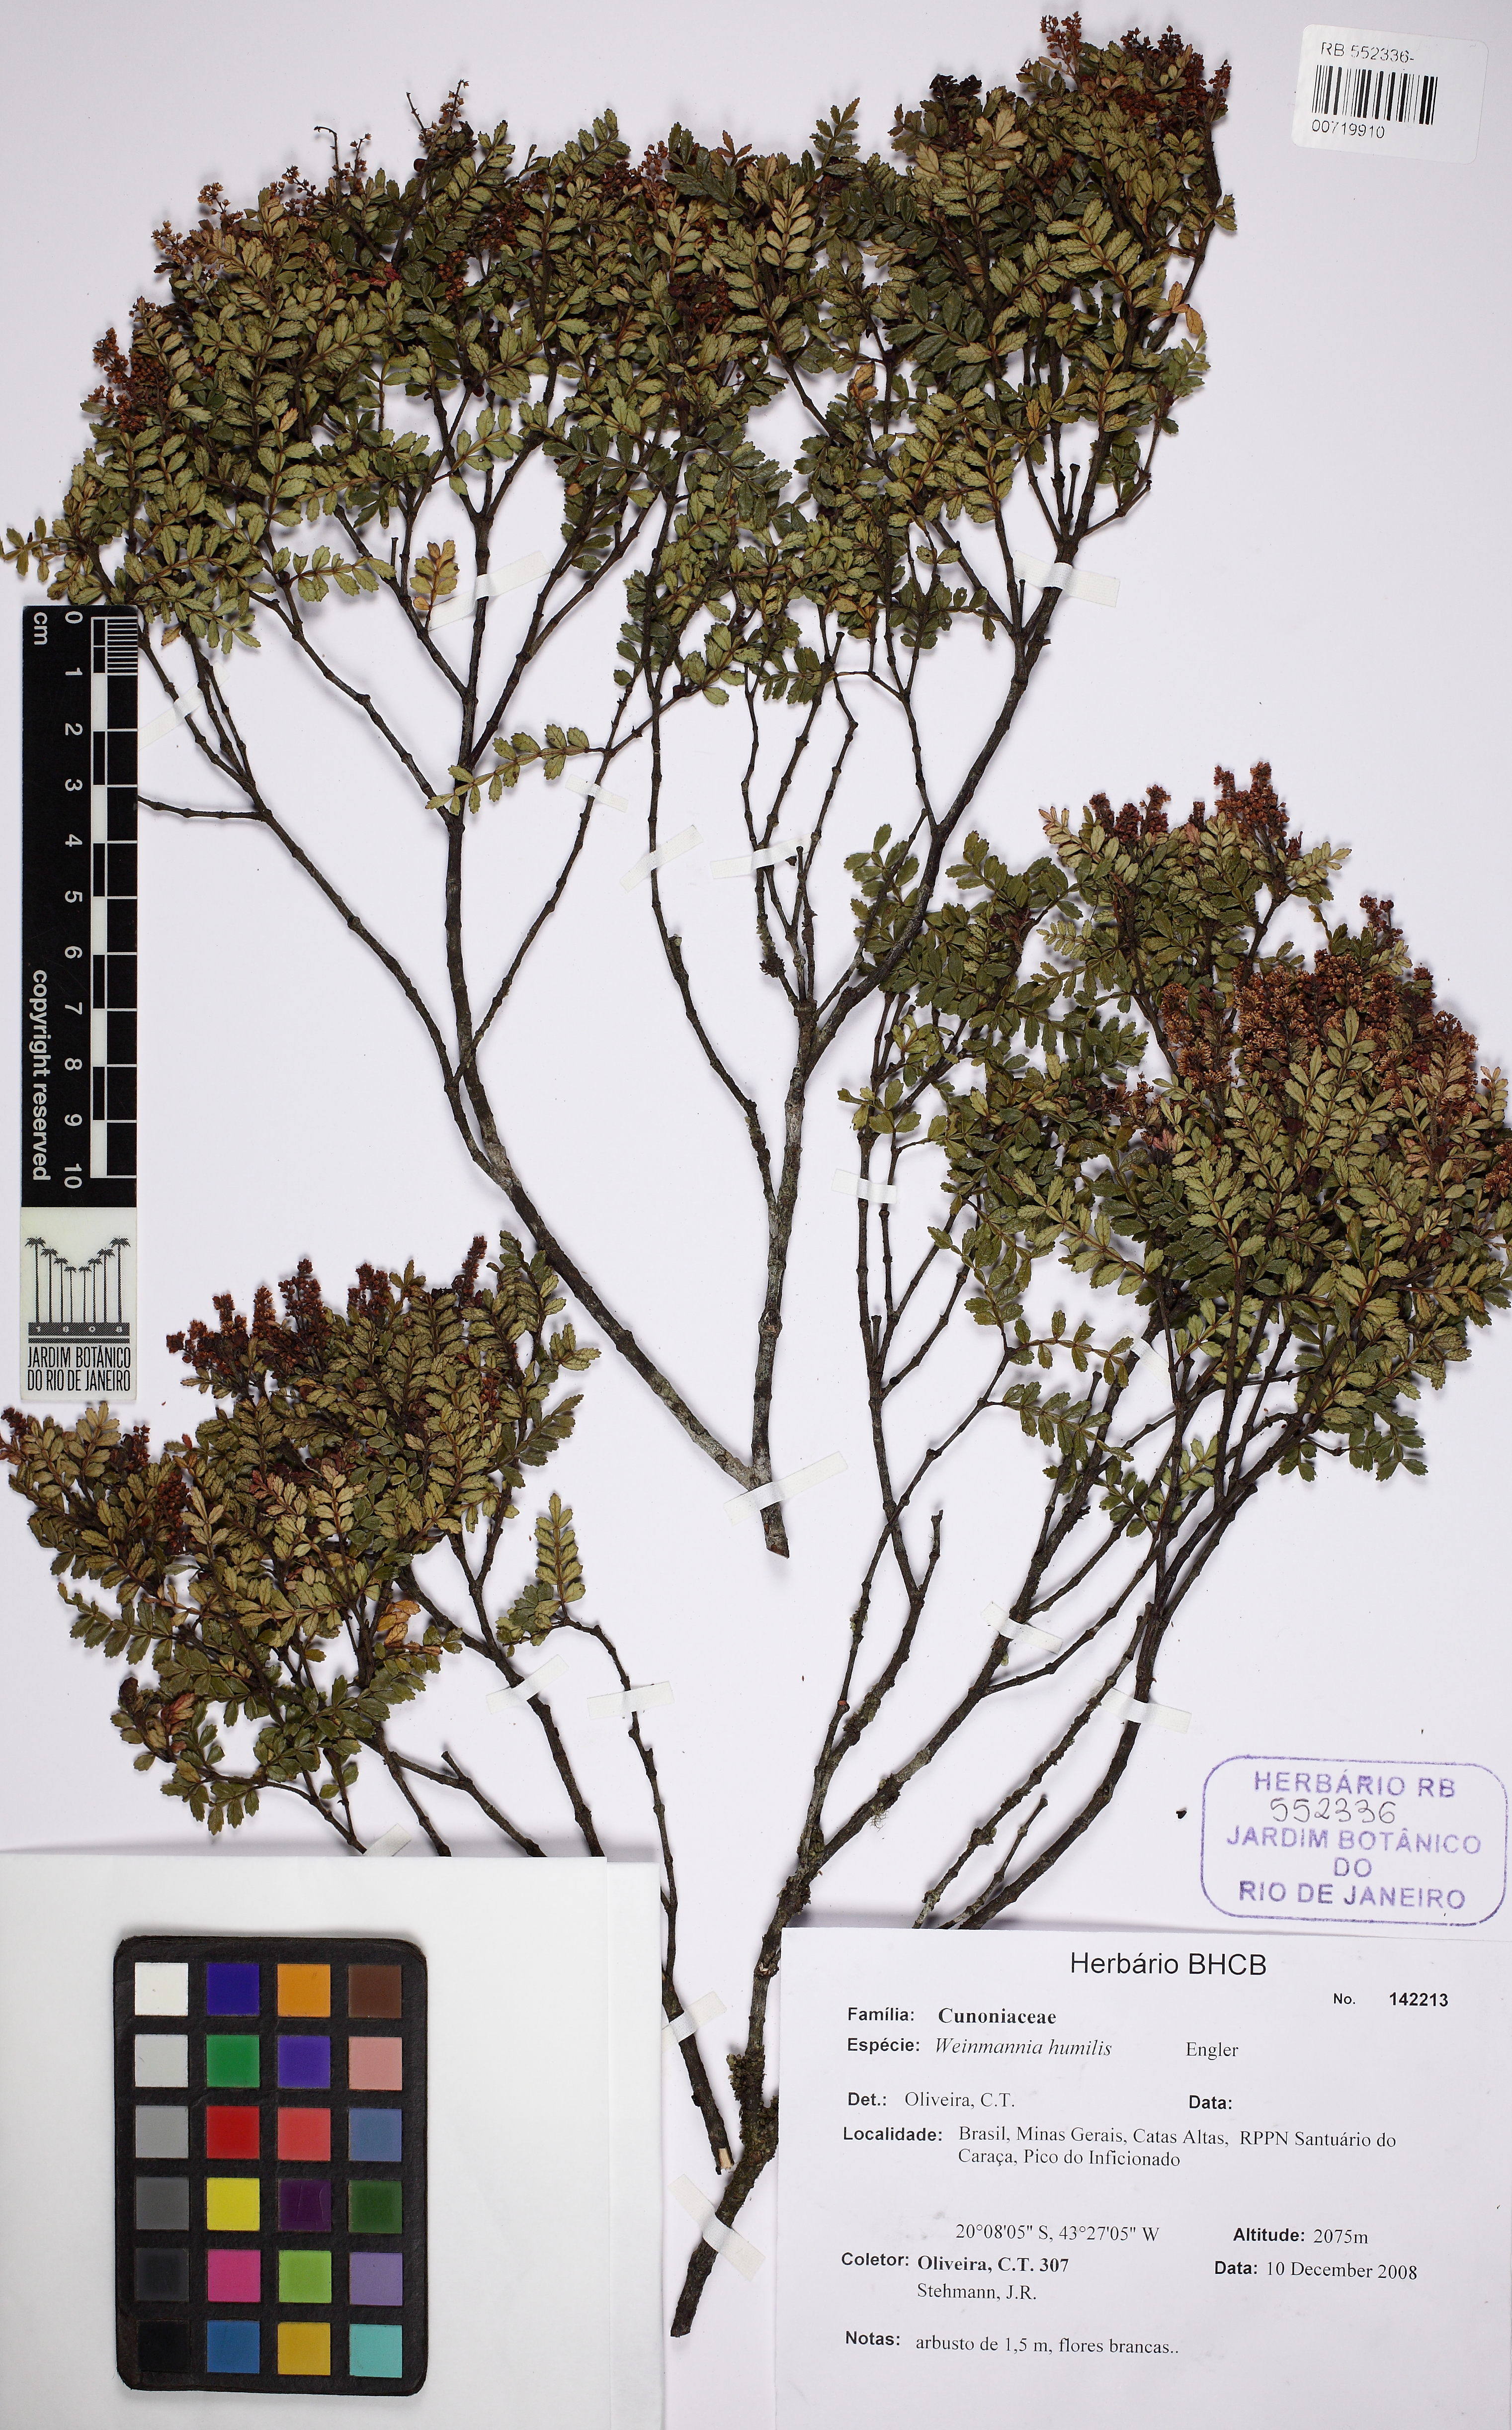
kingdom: Plantae
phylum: Tracheophyta
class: Magnoliopsida
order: Oxalidales
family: Cunoniaceae
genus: Weinmannia
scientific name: Weinmannia humilis
